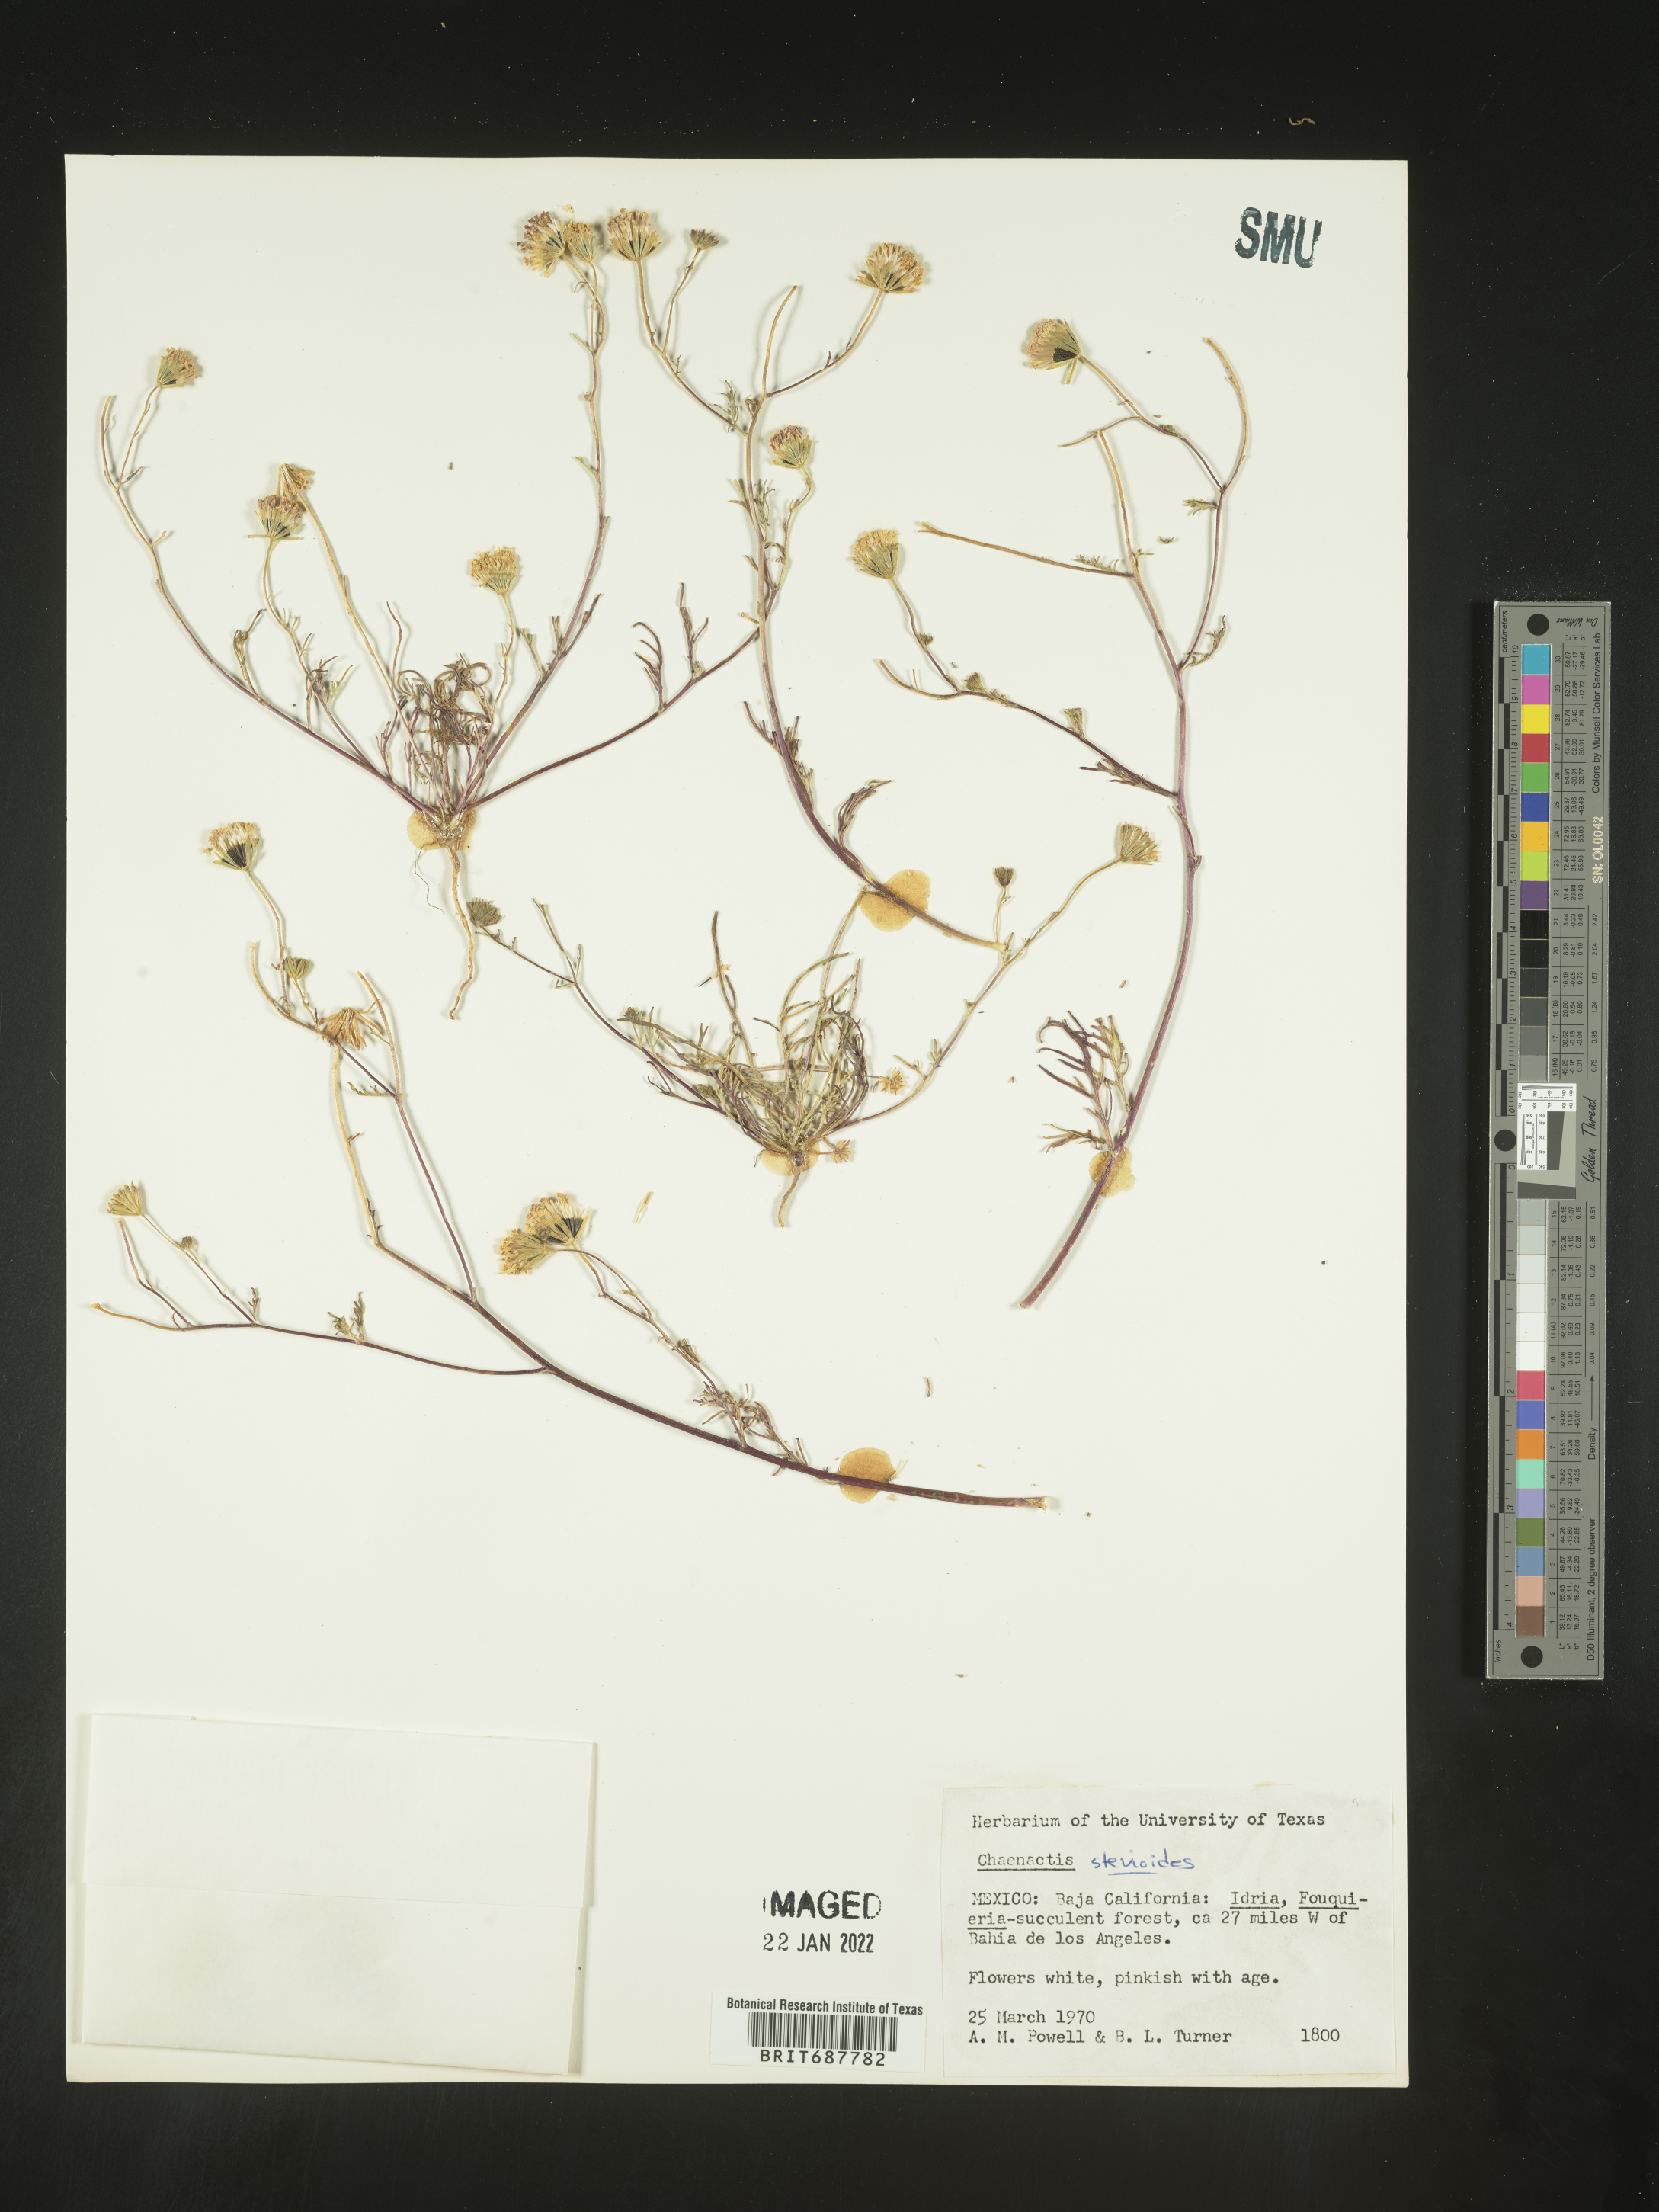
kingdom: Plantae
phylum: Tracheophyta
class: Magnoliopsida
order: Asterales
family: Asteraceae
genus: Chaenactis
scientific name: Chaenactis
